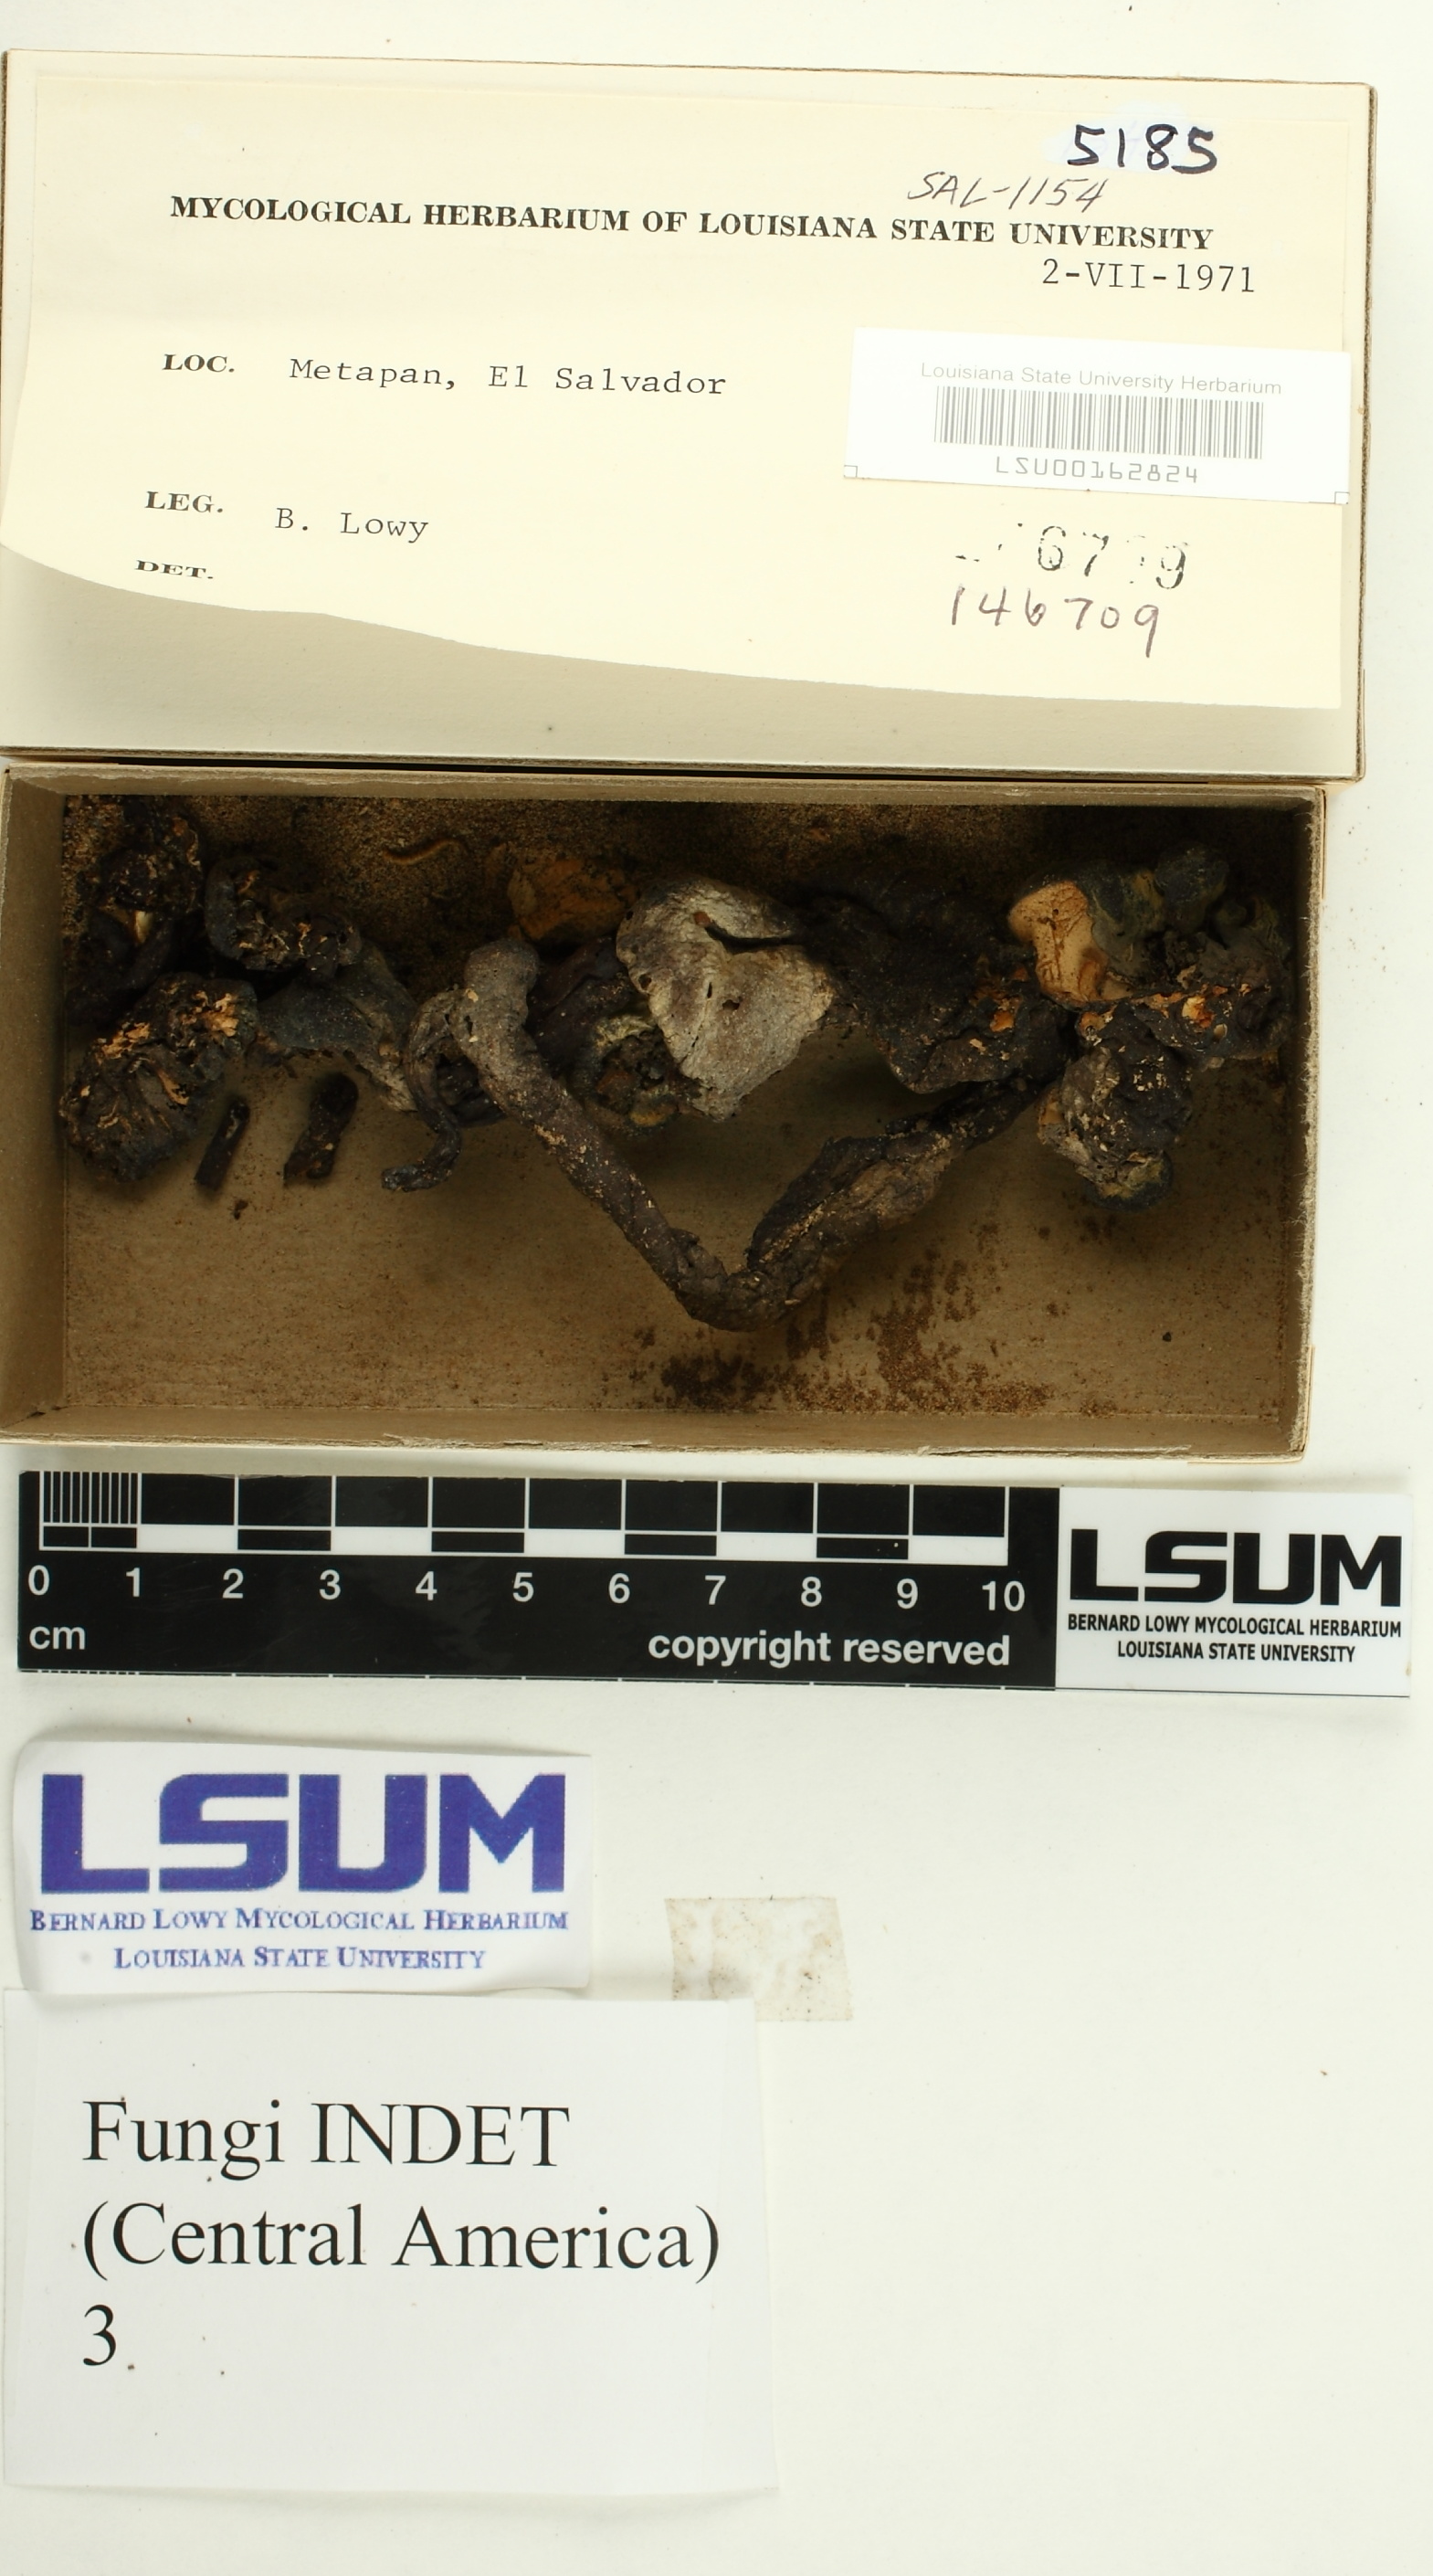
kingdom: Fungi
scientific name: Fungi
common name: Fungi
